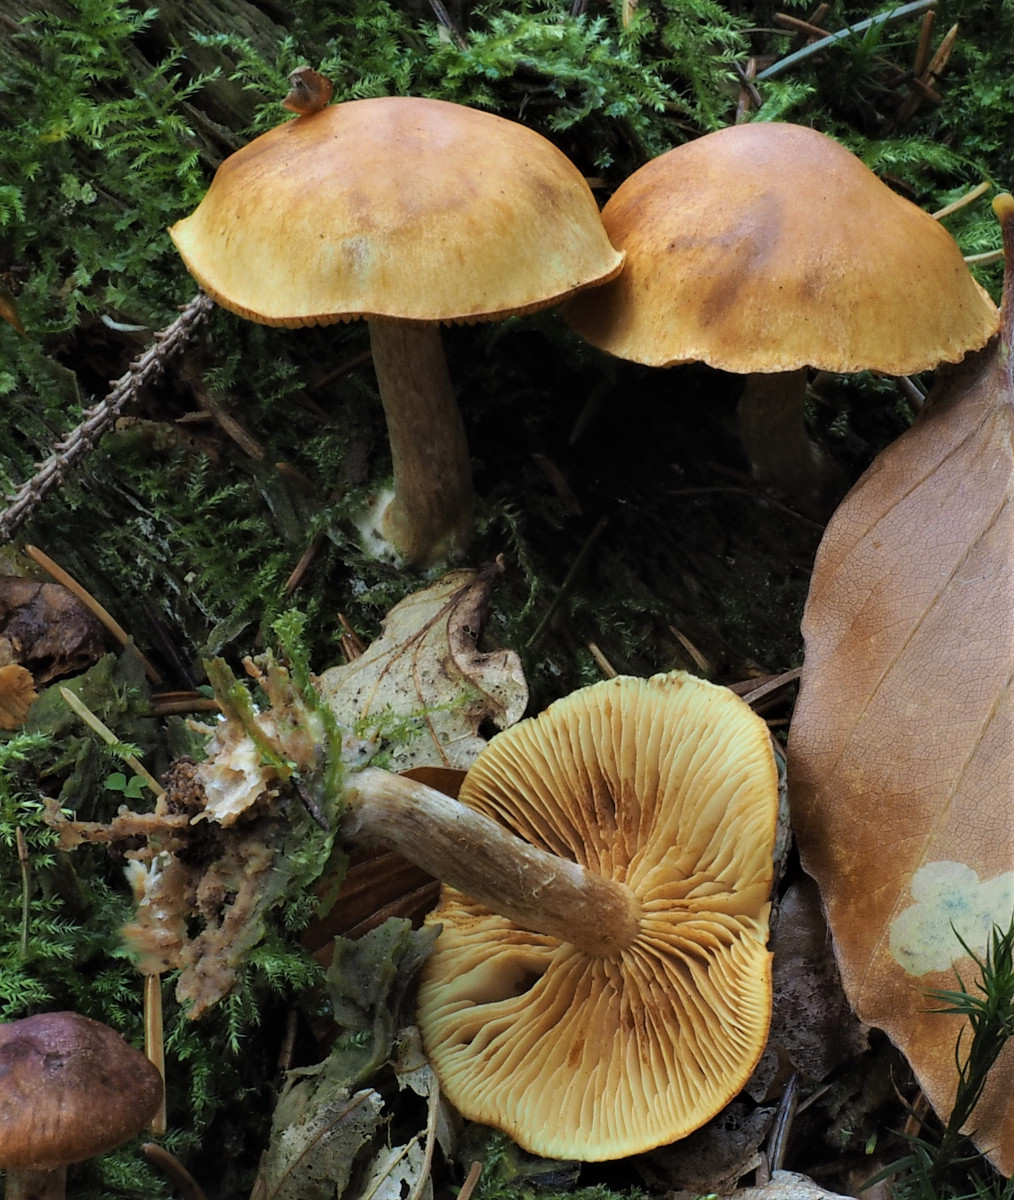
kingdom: Fungi
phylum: Basidiomycota
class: Agaricomycetes
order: Agaricales
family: Hymenogastraceae
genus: Gymnopilus
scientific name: Gymnopilus penetrans
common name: plettet flammehat
